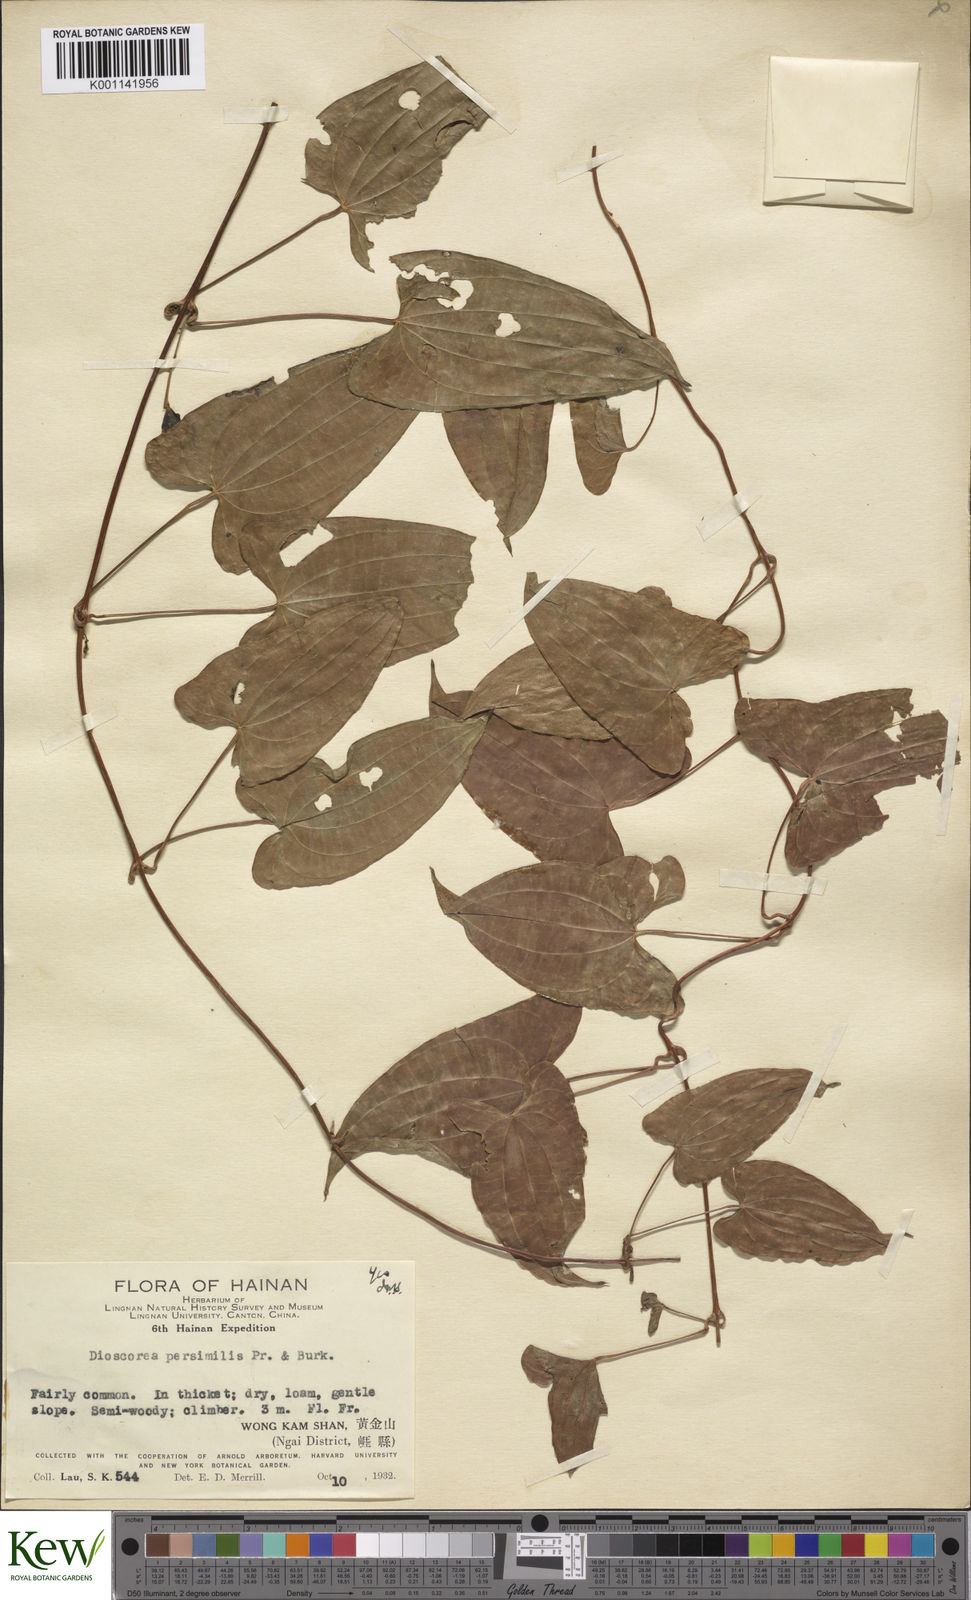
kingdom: Plantae
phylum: Tracheophyta
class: Liliopsida
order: Dioscoreales
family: Dioscoreaceae
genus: Dioscorea
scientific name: Dioscorea hamiltonii
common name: Mountain yam
